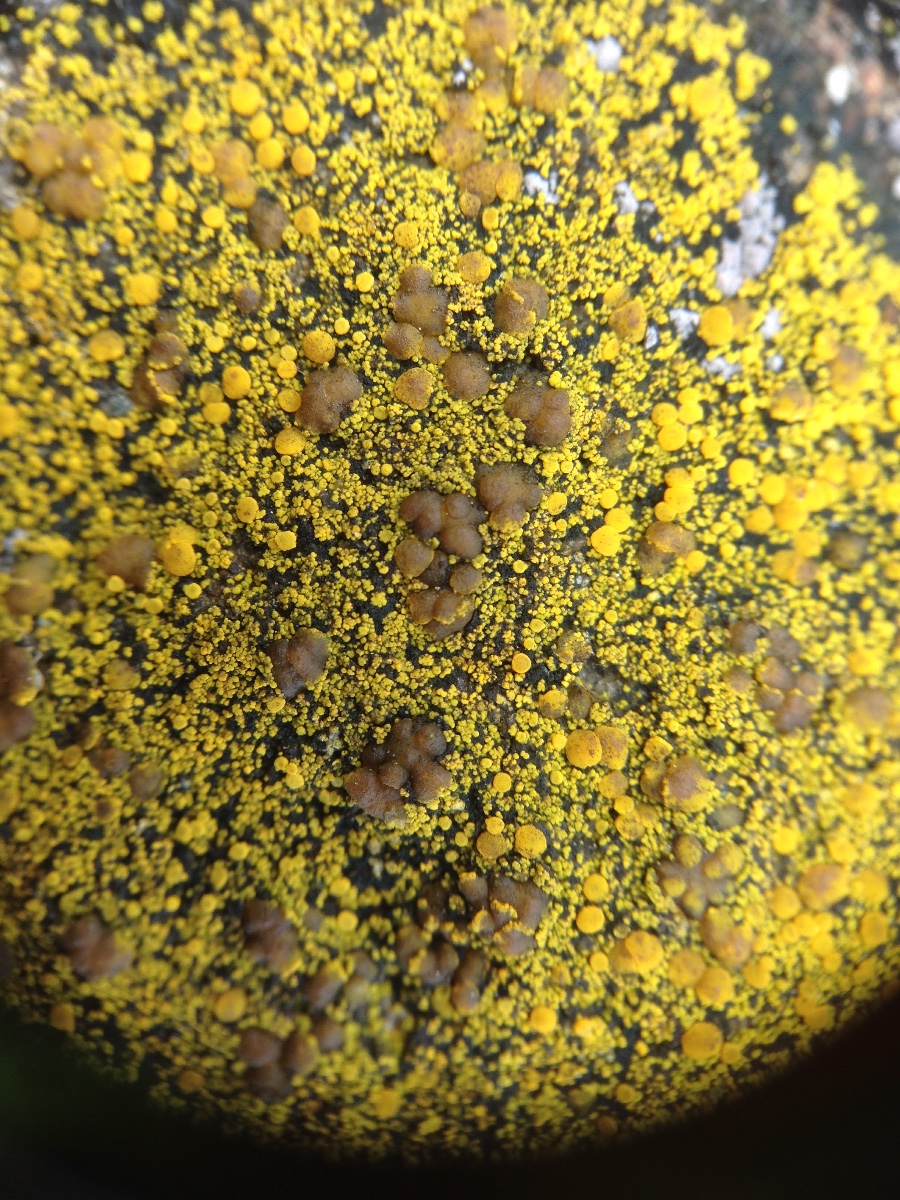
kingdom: Fungi
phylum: Ascomycota
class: Candelariomycetes
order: Candelariales
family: Candelariaceae
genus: Candelariella
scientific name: Candelariella vitellina
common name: almindelig æggeblommelav
